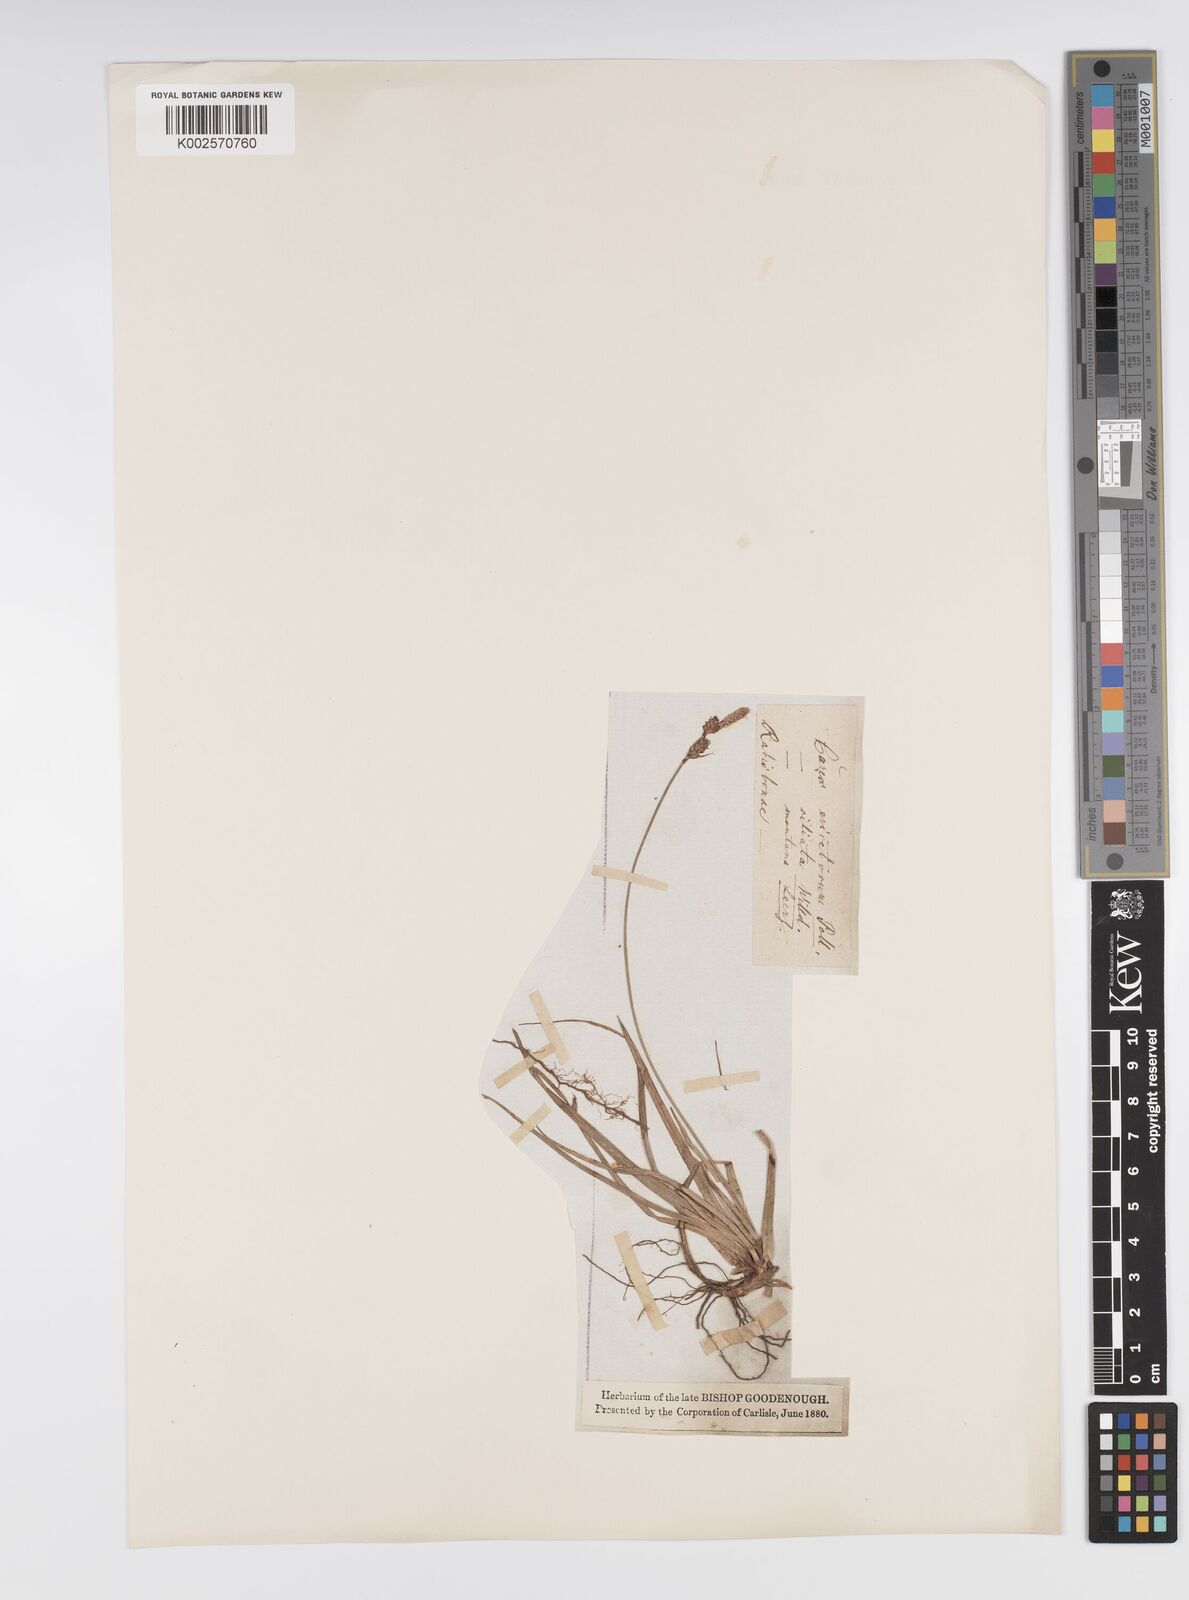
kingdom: Plantae
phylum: Tracheophyta
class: Liliopsida
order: Poales
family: Cyperaceae
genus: Carex
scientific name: Carex ericetorum
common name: Rare spring-sedge
